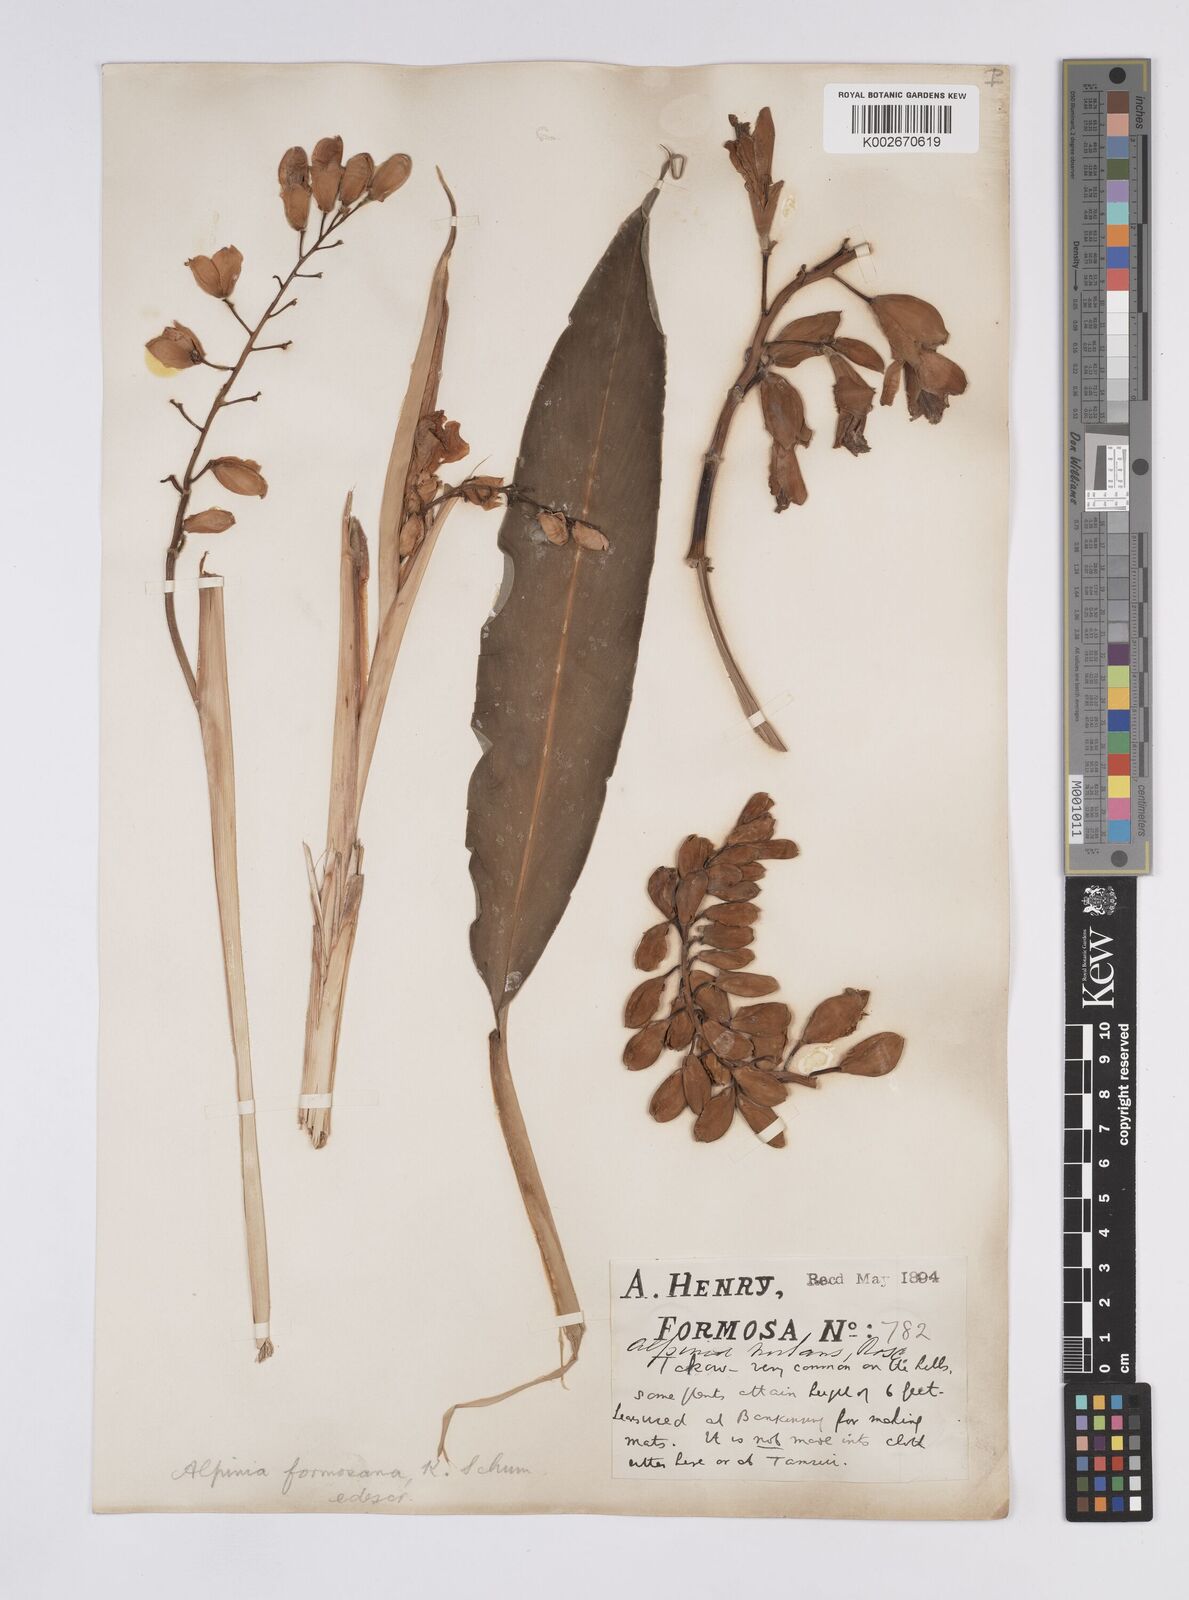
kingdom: Plantae
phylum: Tracheophyta
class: Liliopsida
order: Zingiberales
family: Zingiberaceae
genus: Alpinia
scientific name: Alpinia formosana
